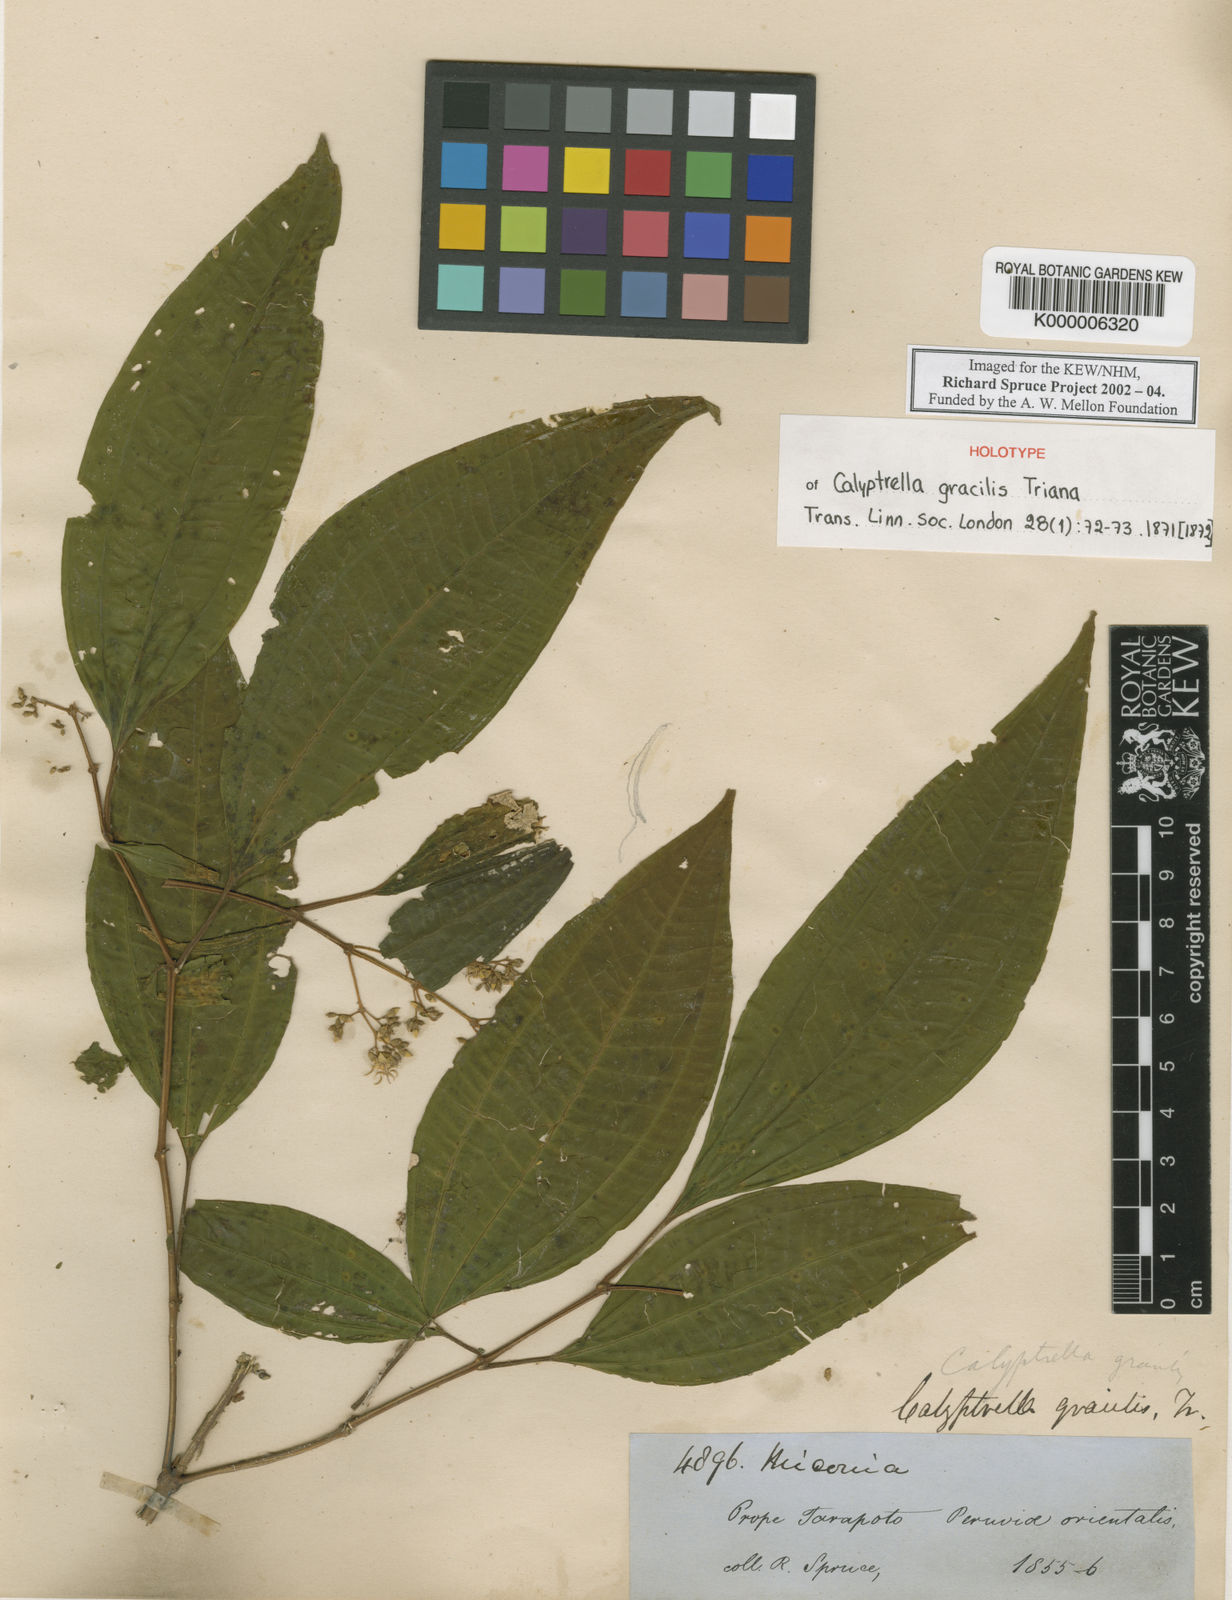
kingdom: Plantae
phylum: Tracheophyta
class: Magnoliopsida
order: Myrtales
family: Melastomataceae
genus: Graffenrieda
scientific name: Graffenrieda gracilis
